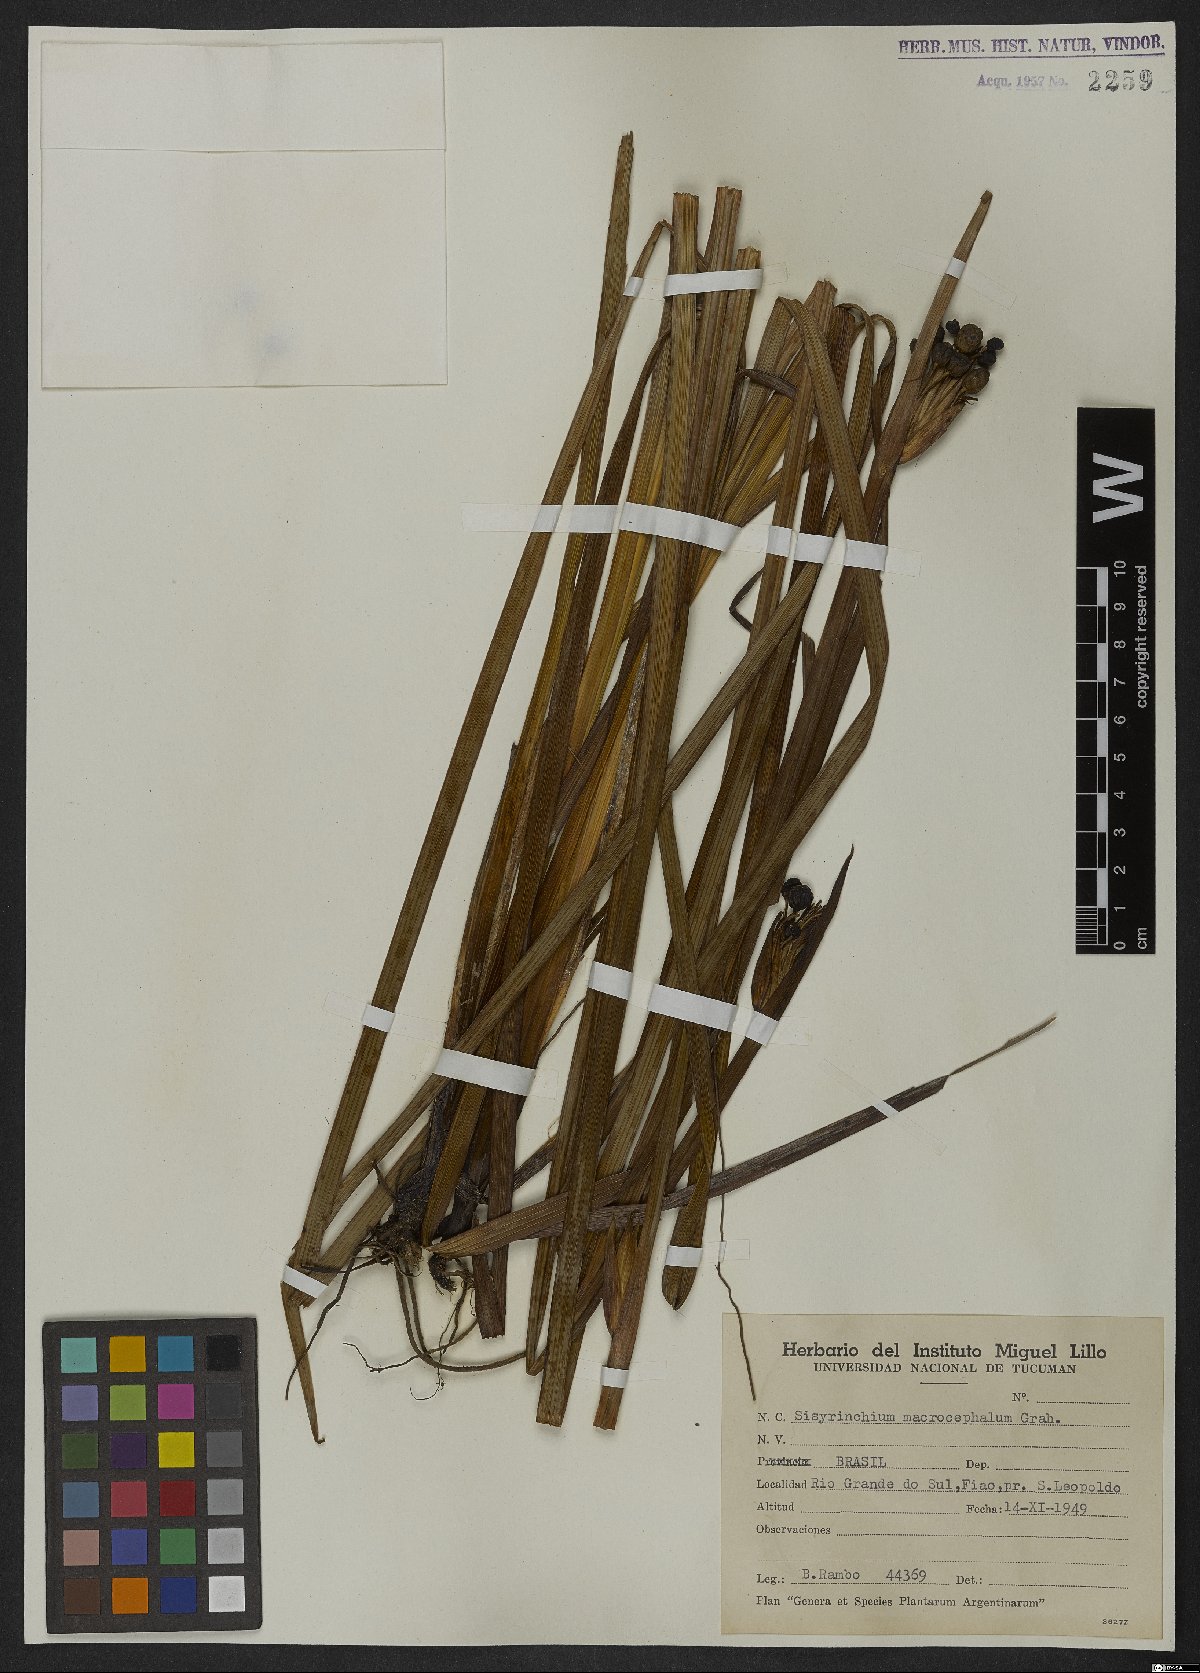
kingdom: Plantae
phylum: Tracheophyta
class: Liliopsida
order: Asparagales
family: Iridaceae
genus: Sisyrinchium
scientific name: Sisyrinchium palmifolium
